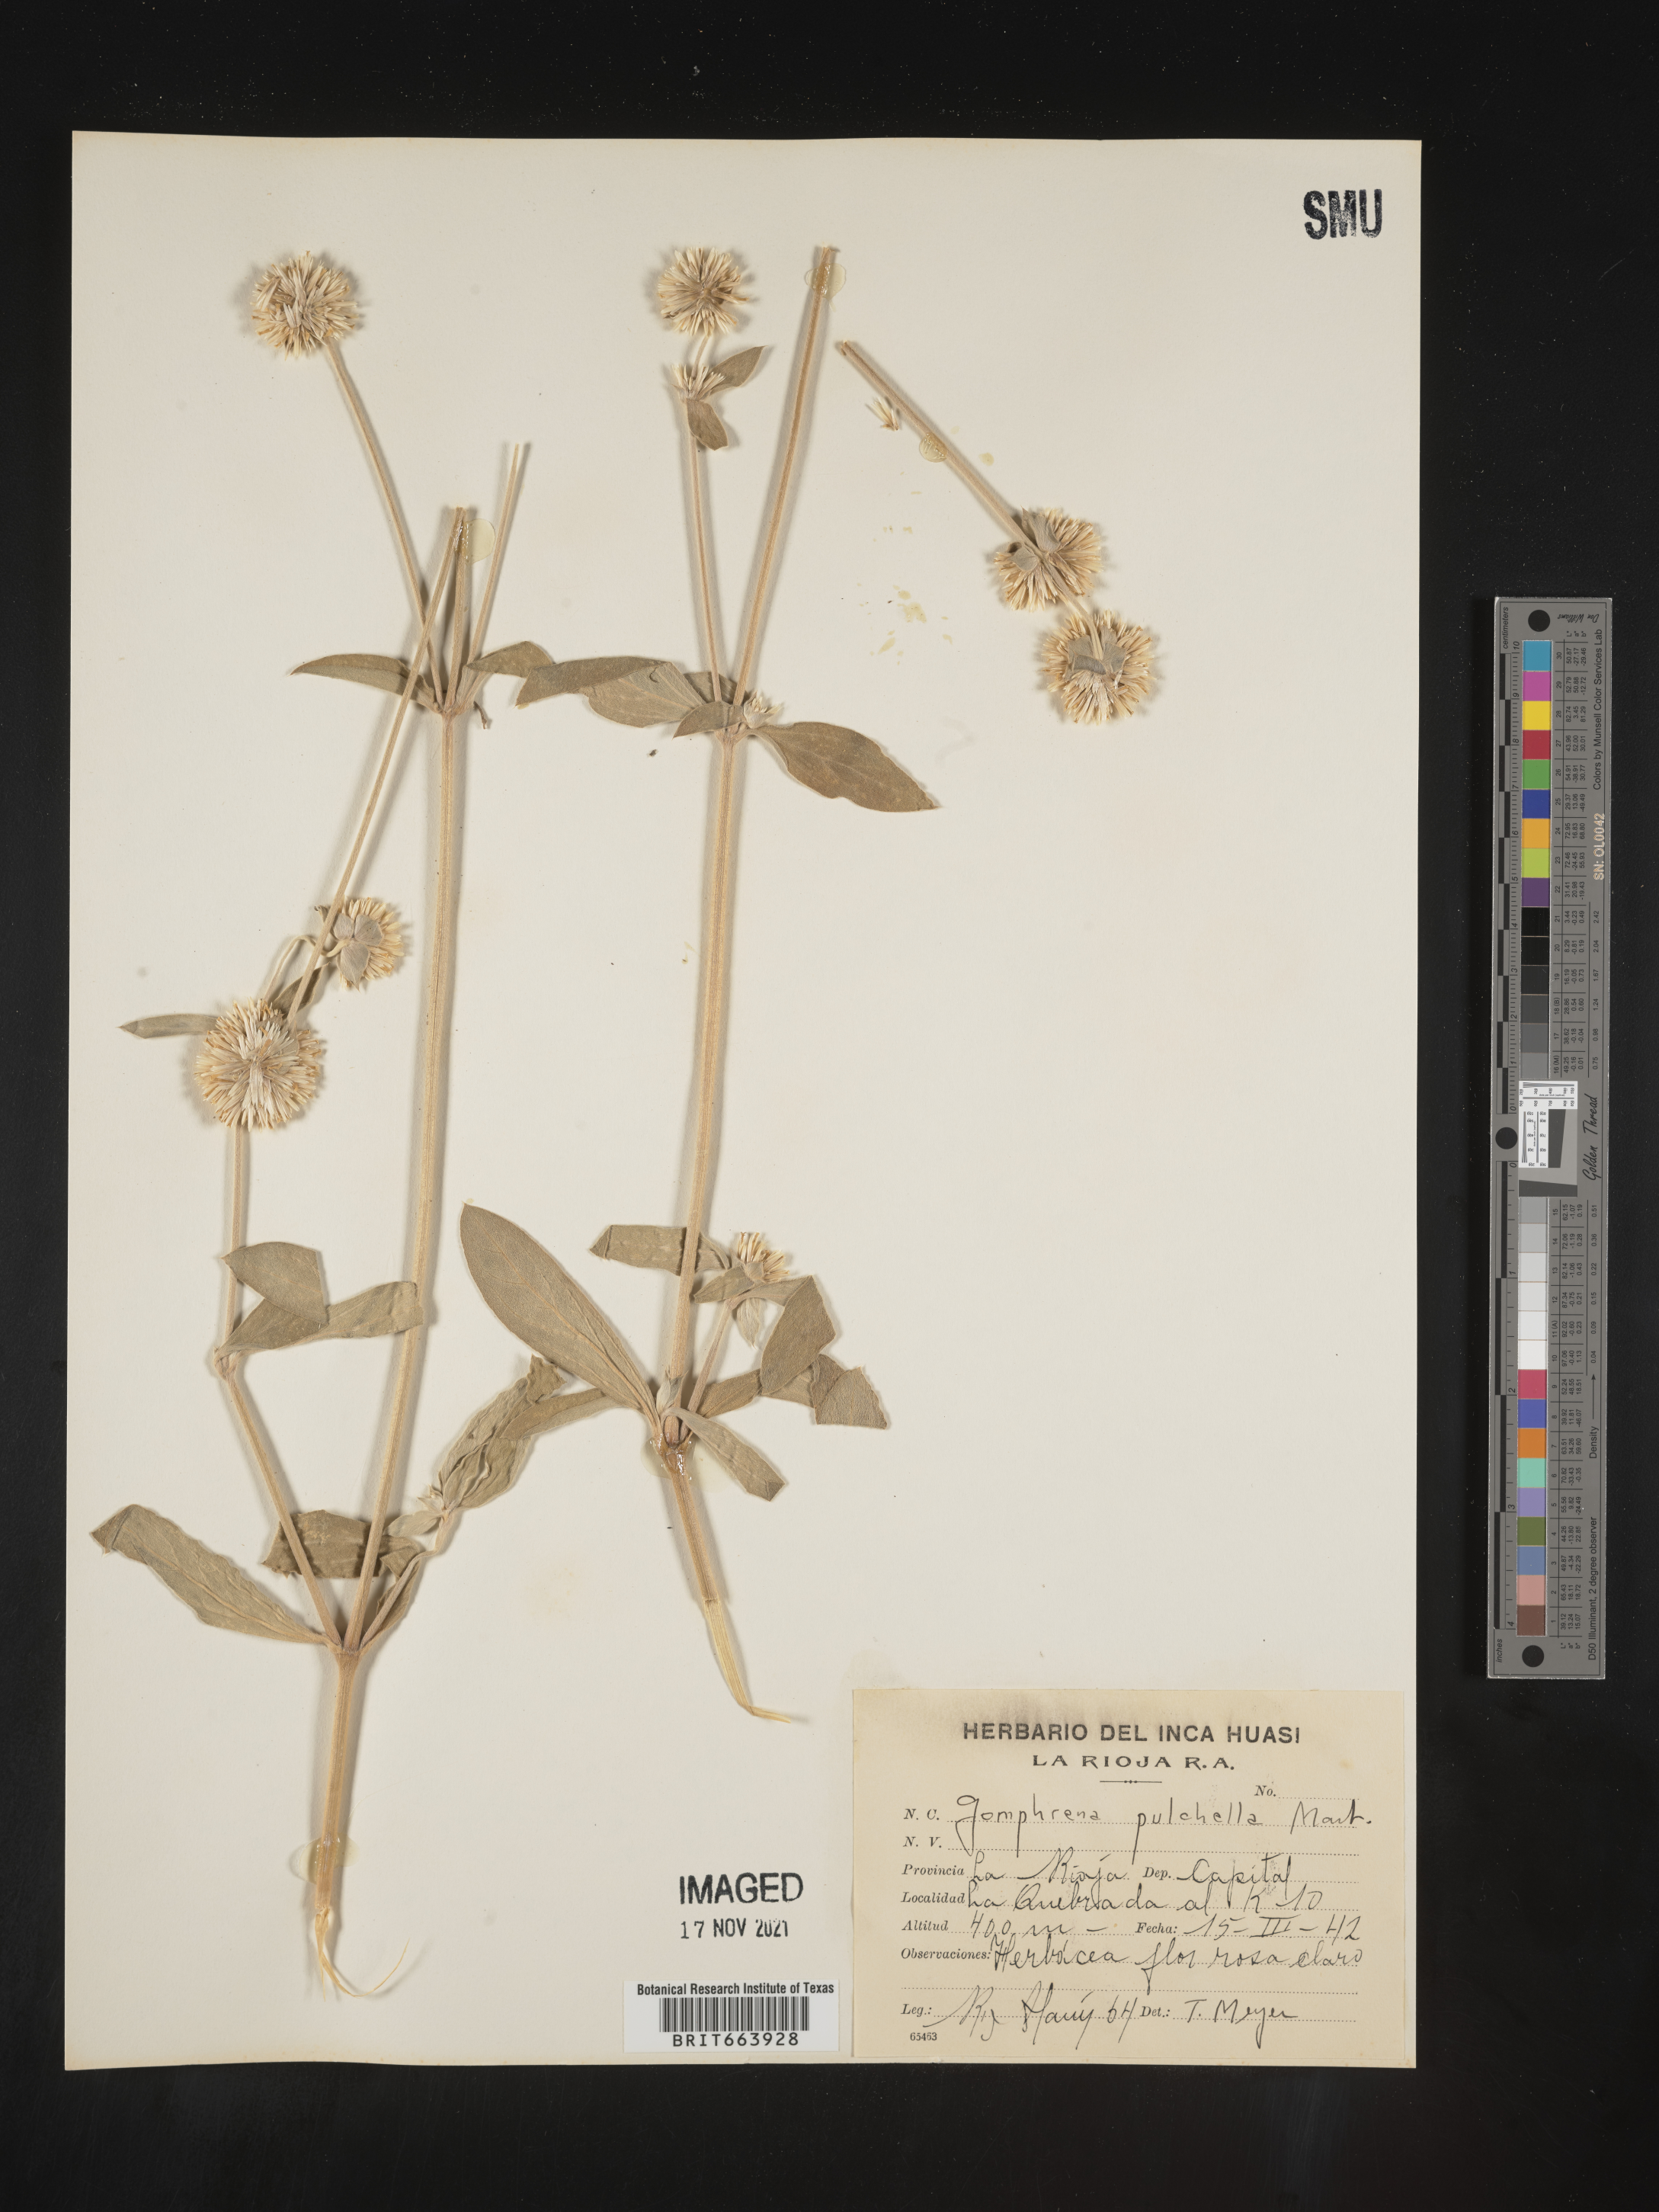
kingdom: Plantae
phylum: Tracheophyta
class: Magnoliopsida
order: Caryophyllales
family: Amaranthaceae
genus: Gomphrena
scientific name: Gomphrena
